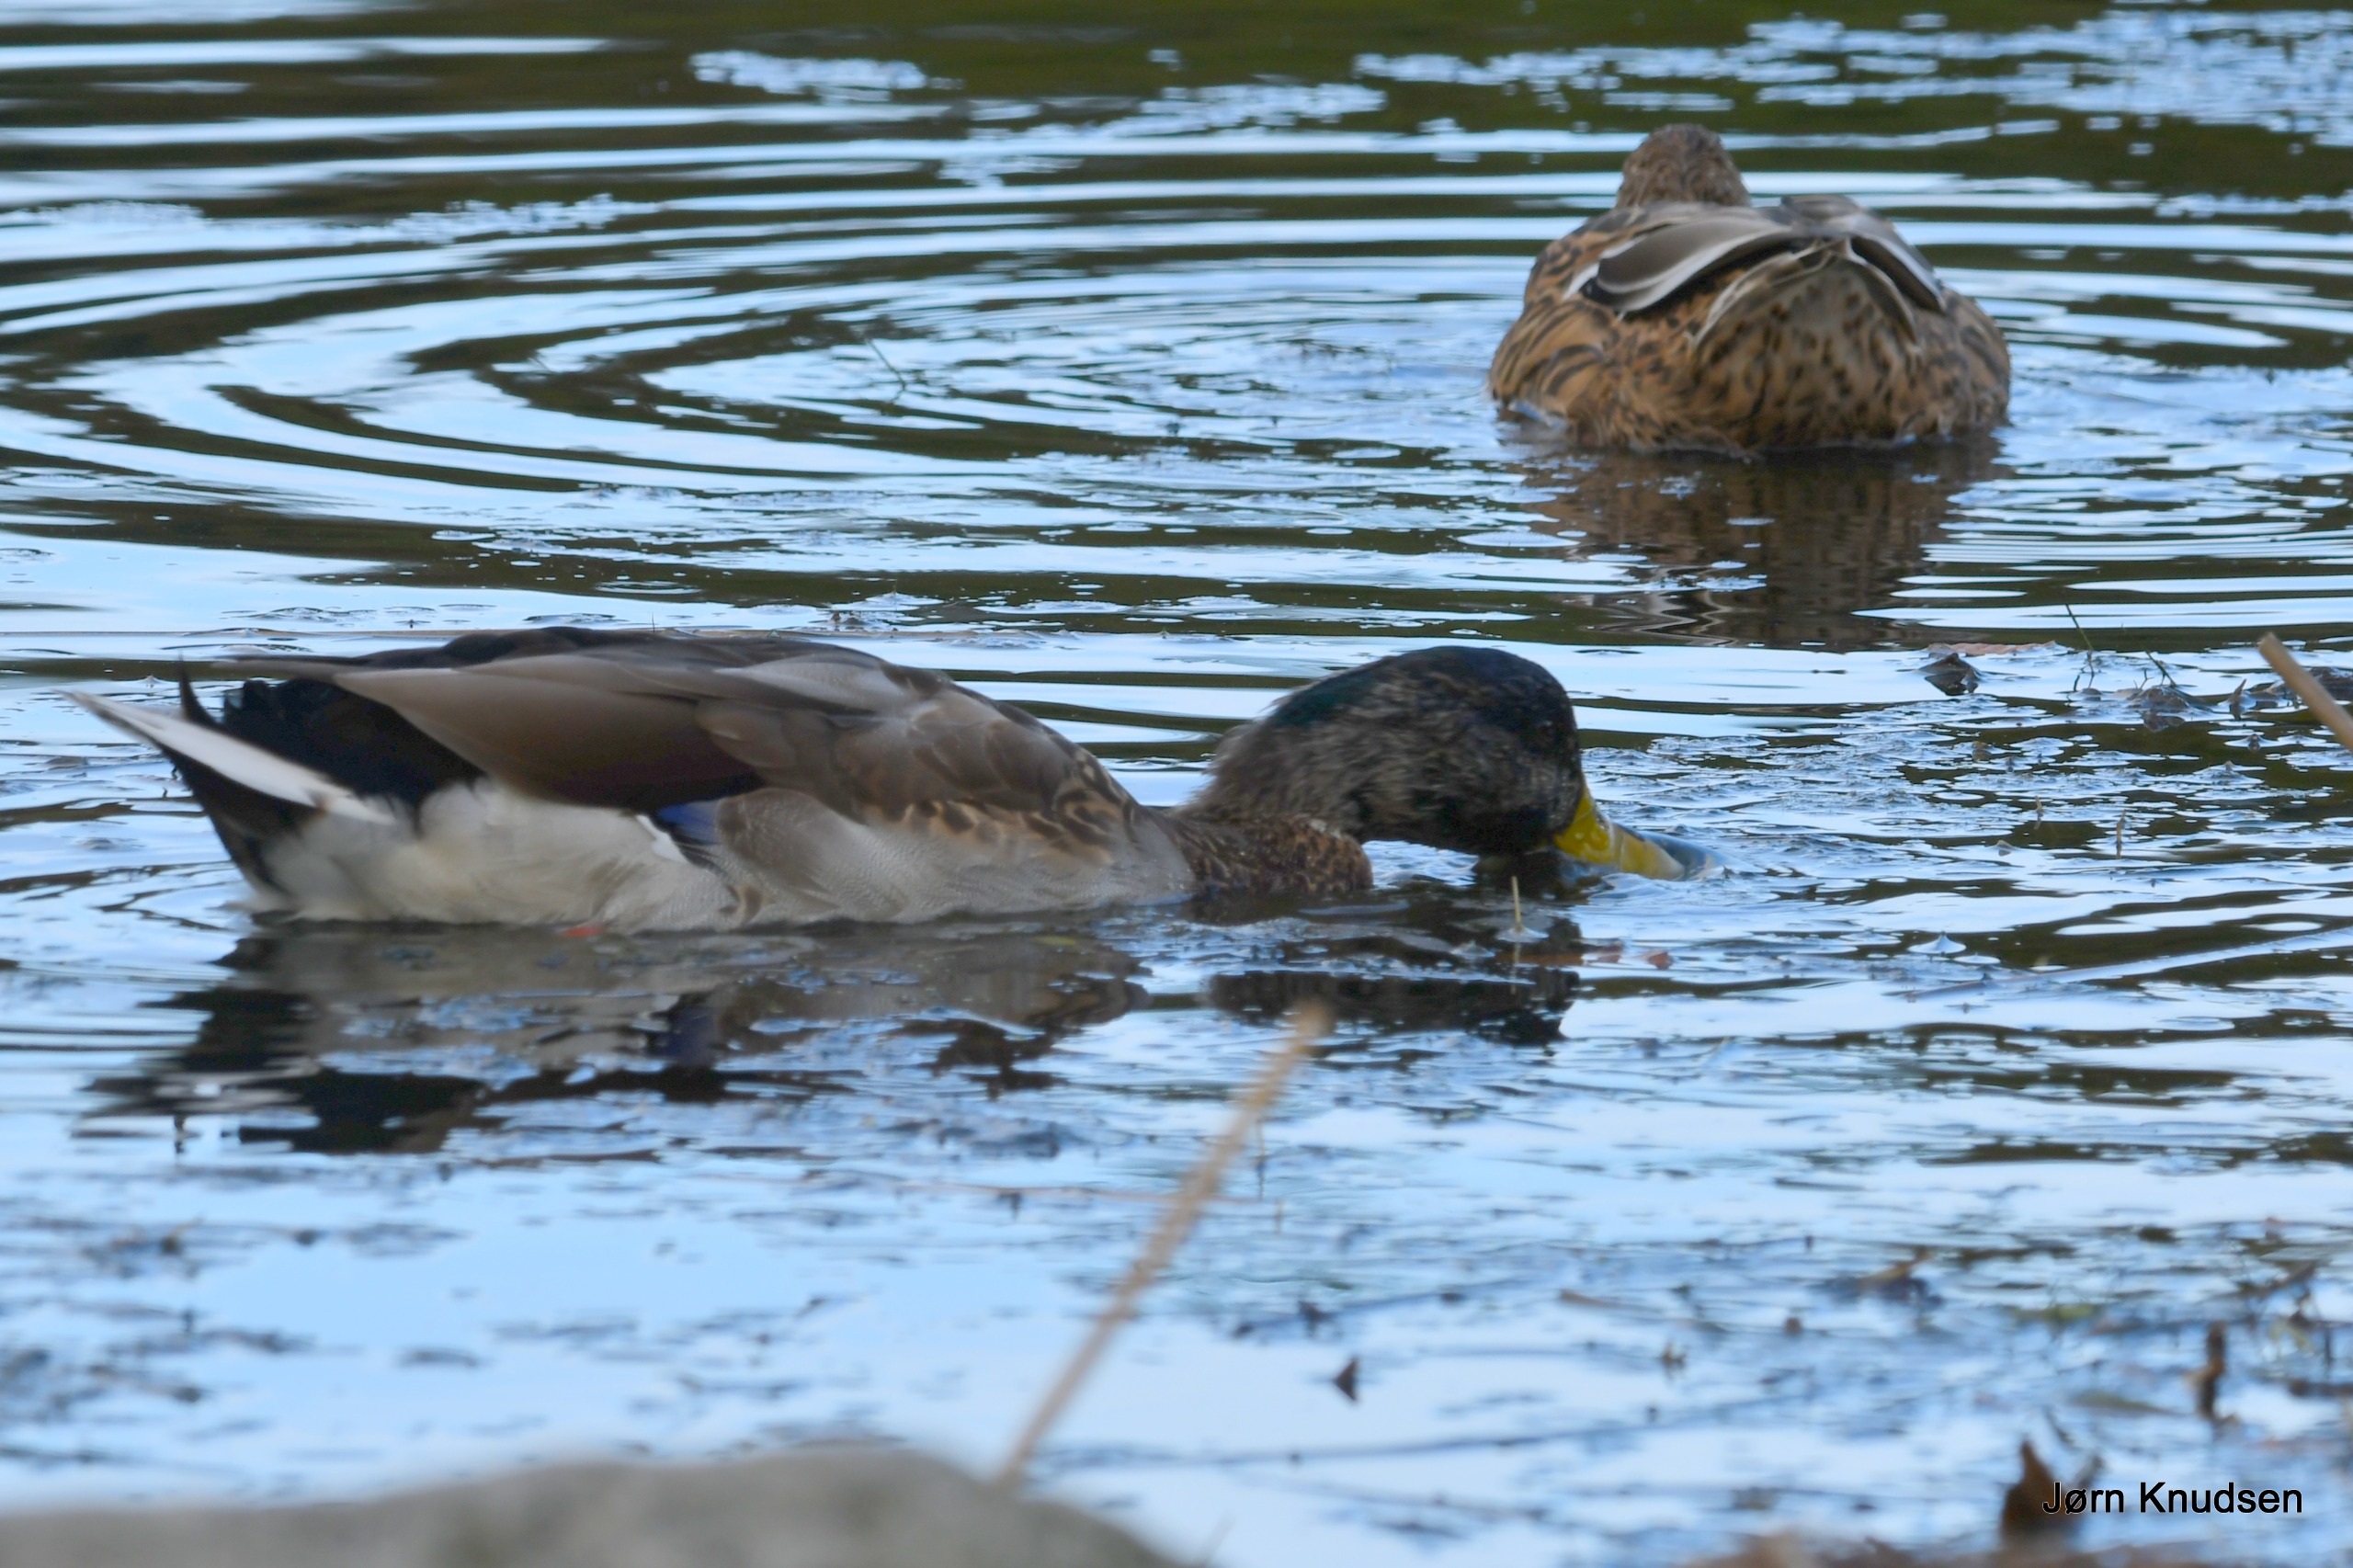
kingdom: Animalia
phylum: Chordata
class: Aves
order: Anseriformes
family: Anatidae
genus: Anas
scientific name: Anas platyrhynchos
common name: Gråand
